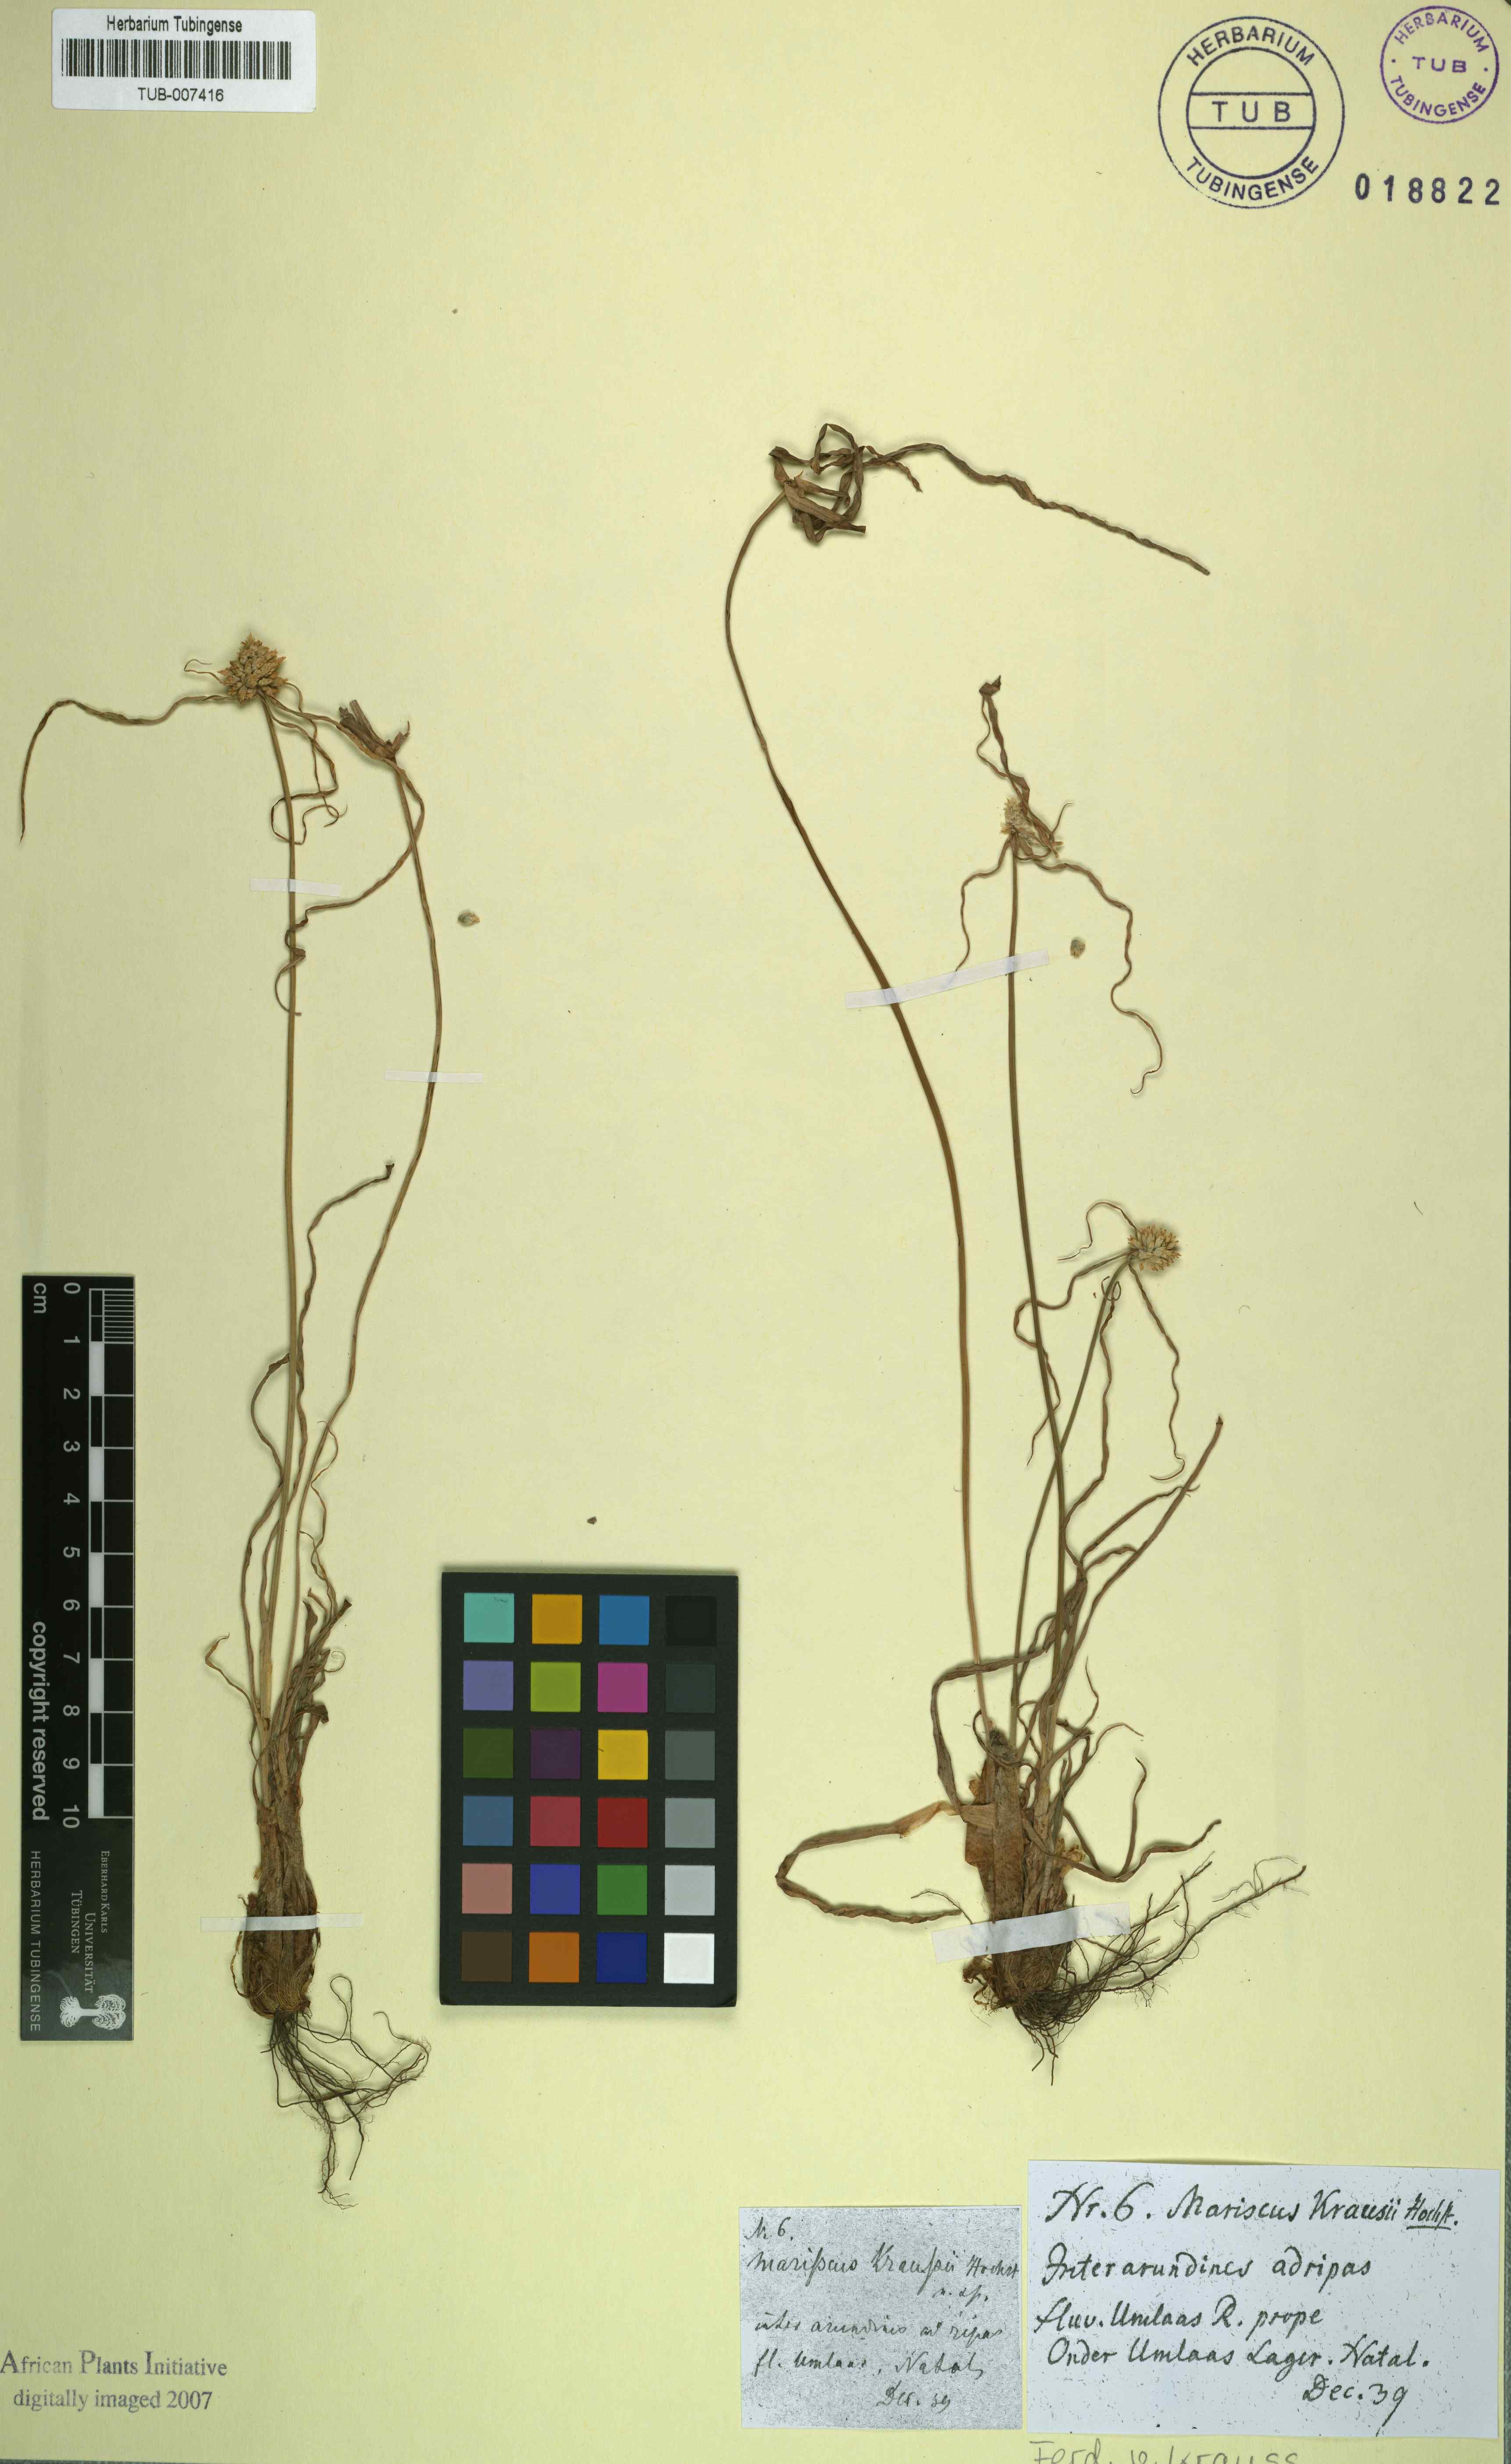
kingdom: Plantae
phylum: Tracheophyta
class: Liliopsida
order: Poales
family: Cyperaceae
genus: Cyperus
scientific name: Cyperus dubius
